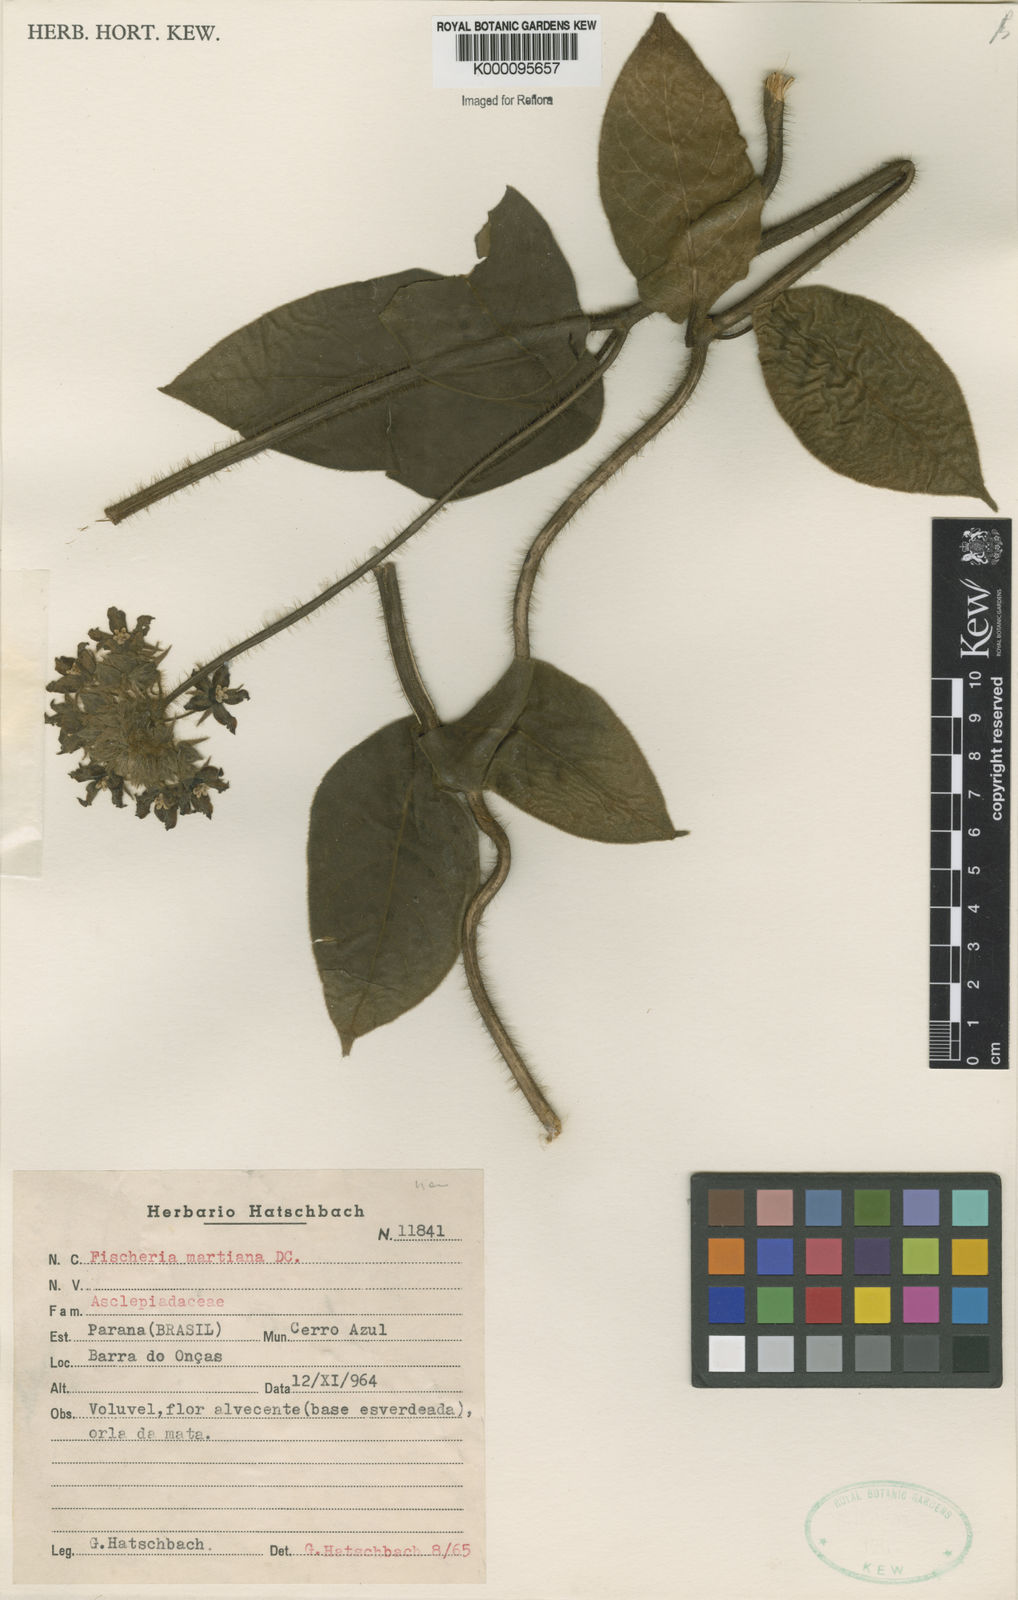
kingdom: Plantae
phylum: Tracheophyta
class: Magnoliopsida
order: Gentianales
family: Apocynaceae
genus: Fischeria
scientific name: Fischeria stellata
